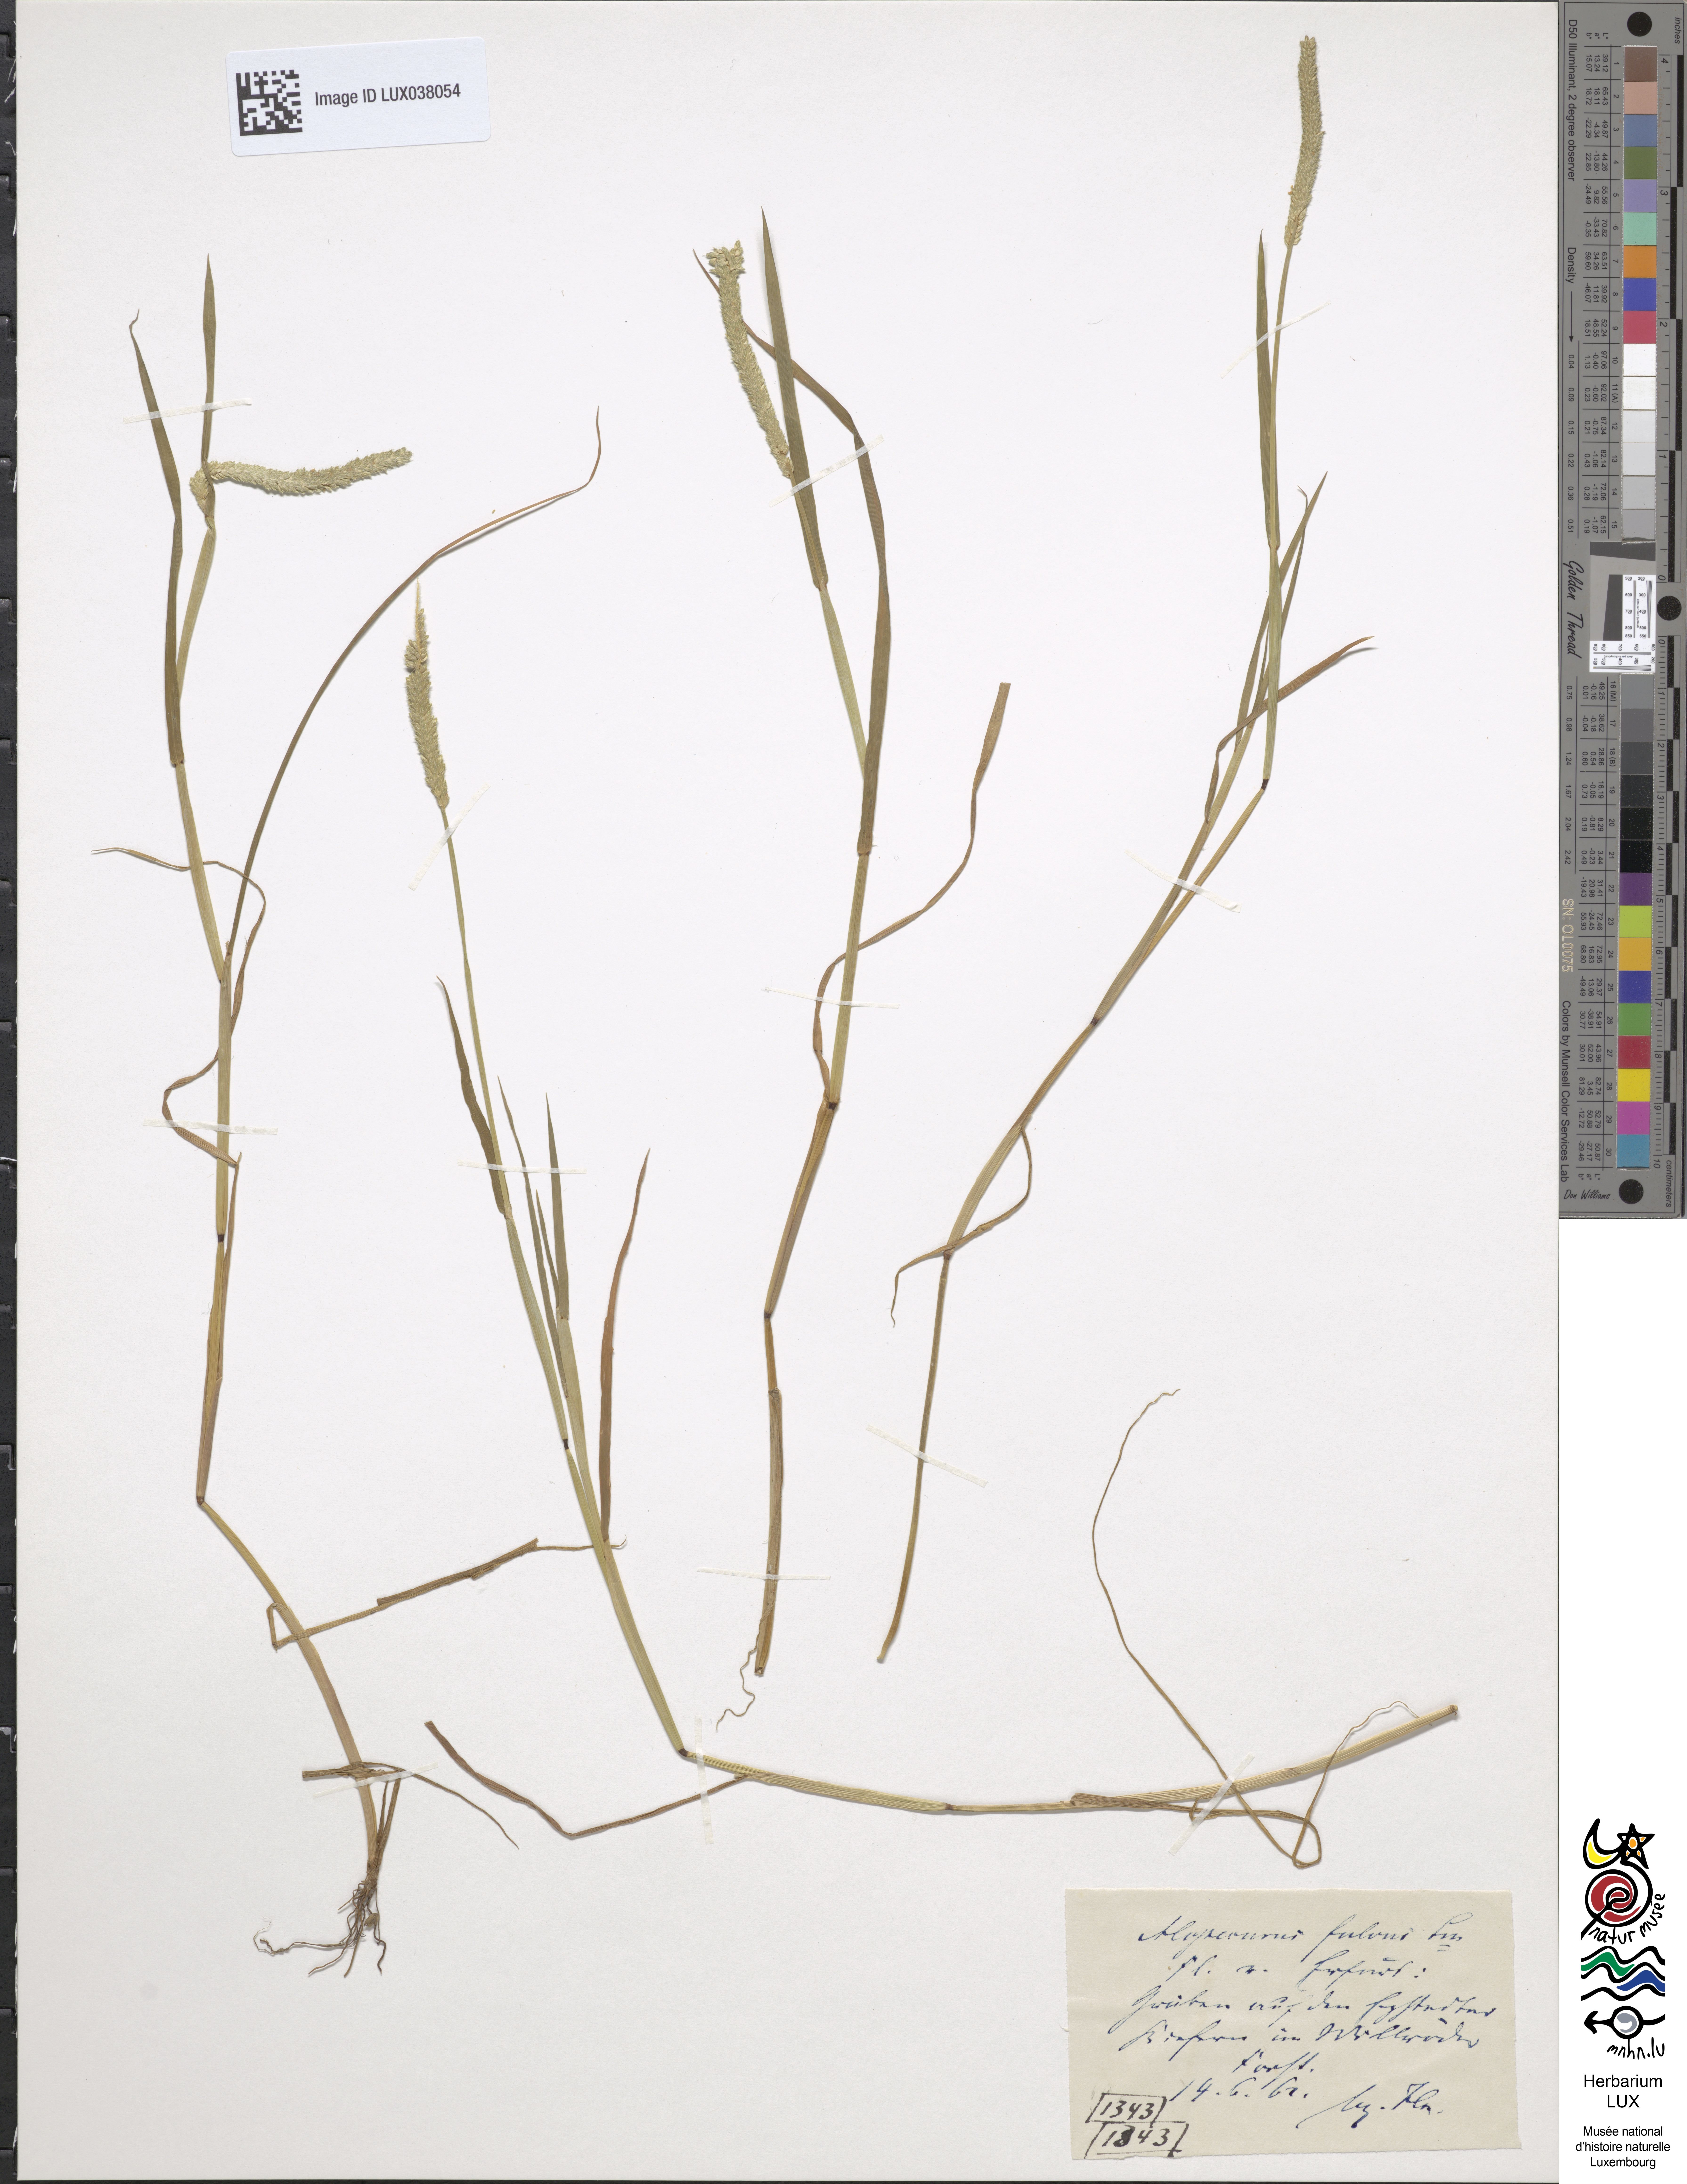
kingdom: Plantae
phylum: Tracheophyta
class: Liliopsida
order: Poales
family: Poaceae
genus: Alopecurus
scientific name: Alopecurus aequalis
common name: Orange foxtail
